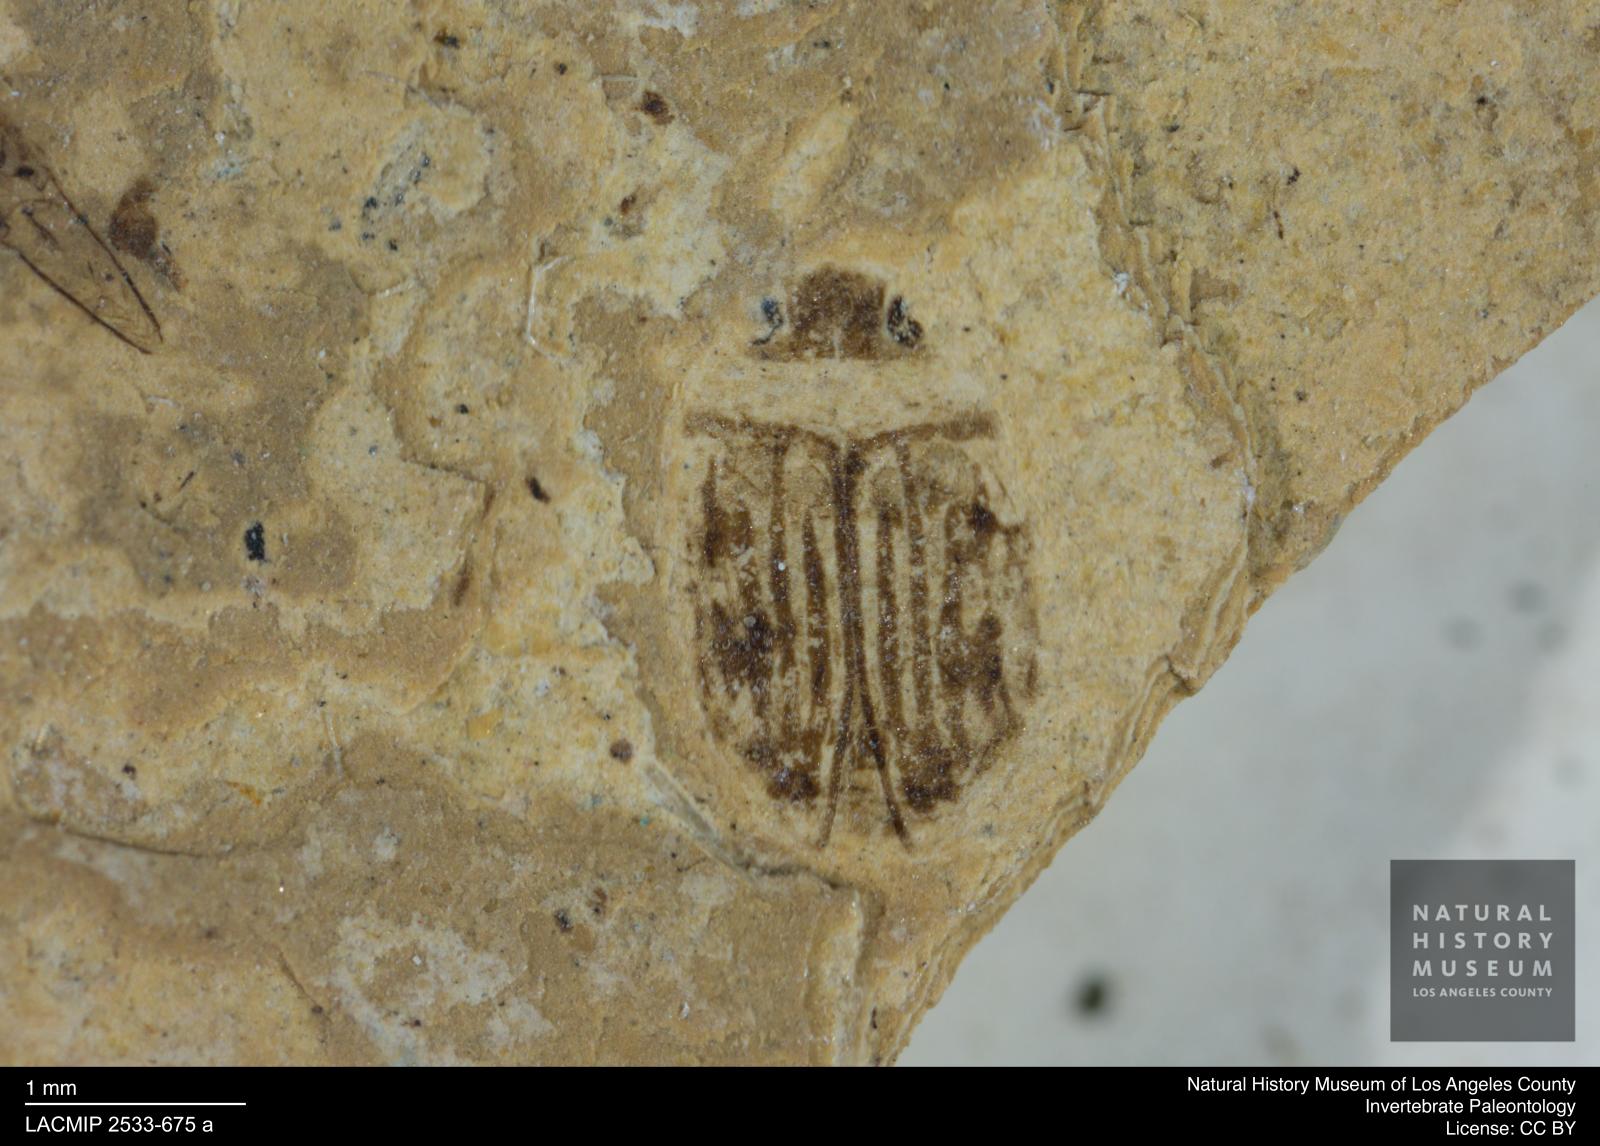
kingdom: Animalia
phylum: Arthropoda
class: Insecta
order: Coleoptera
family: Dytiscidae
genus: Oreodytes
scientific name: Oreodytes cryptolineatus
